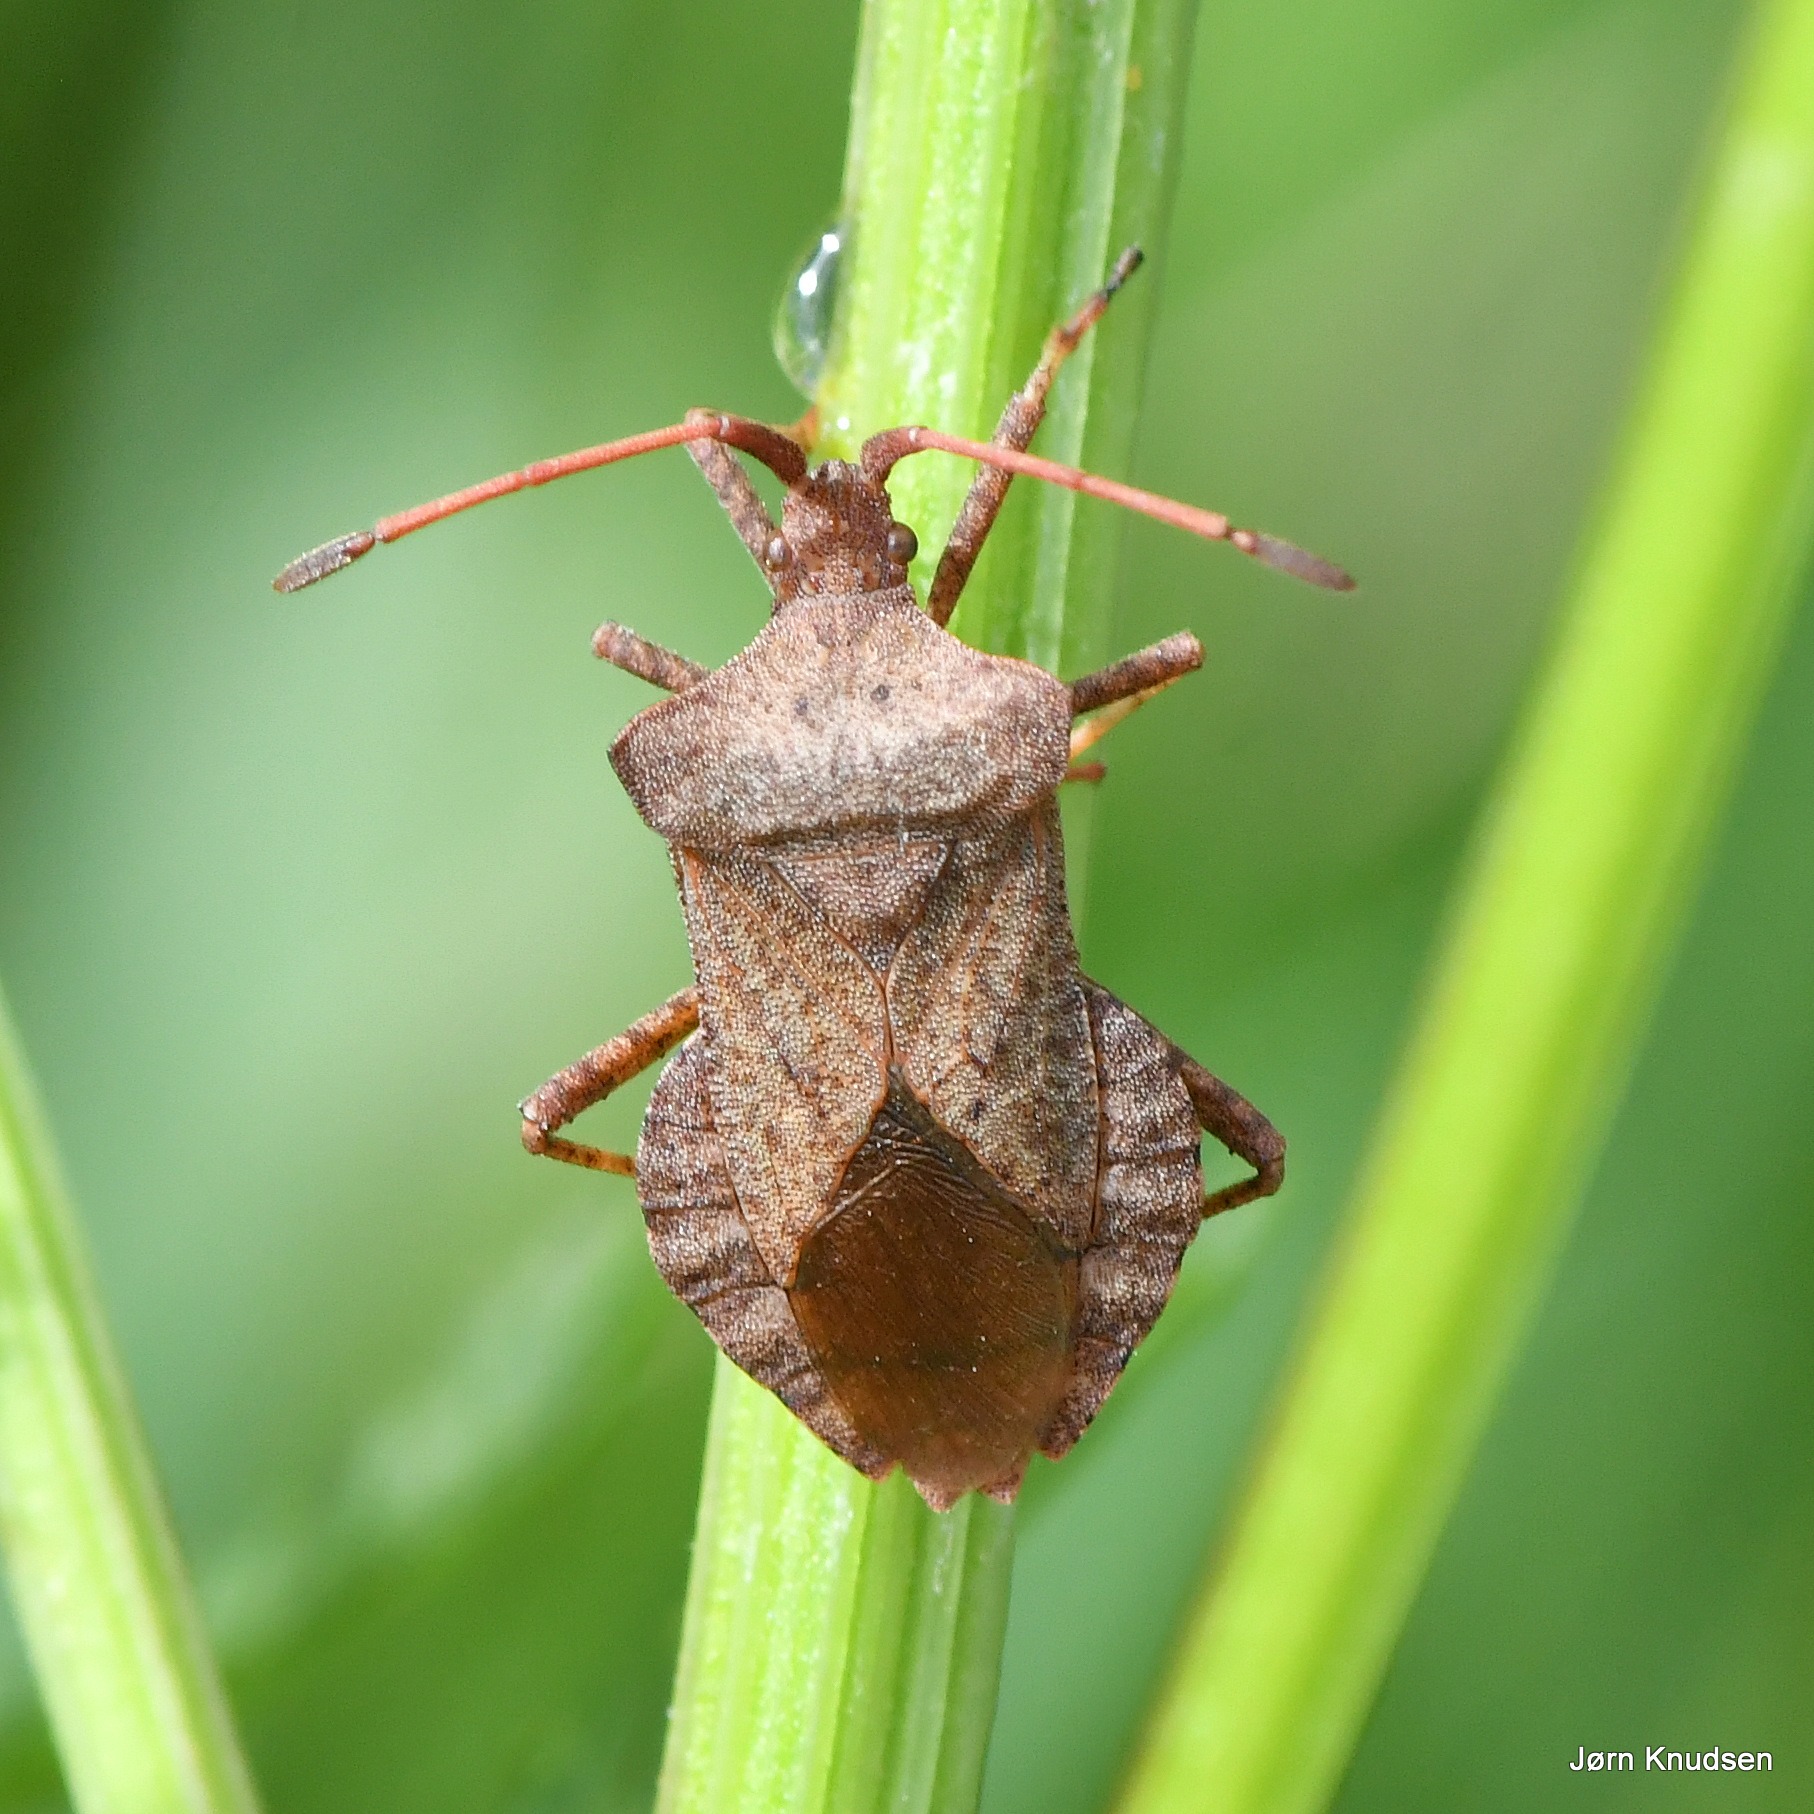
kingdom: Animalia
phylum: Arthropoda
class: Insecta
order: Hemiptera
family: Coreidae
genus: Coreus
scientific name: Coreus marginatus
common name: Skræppetæge
